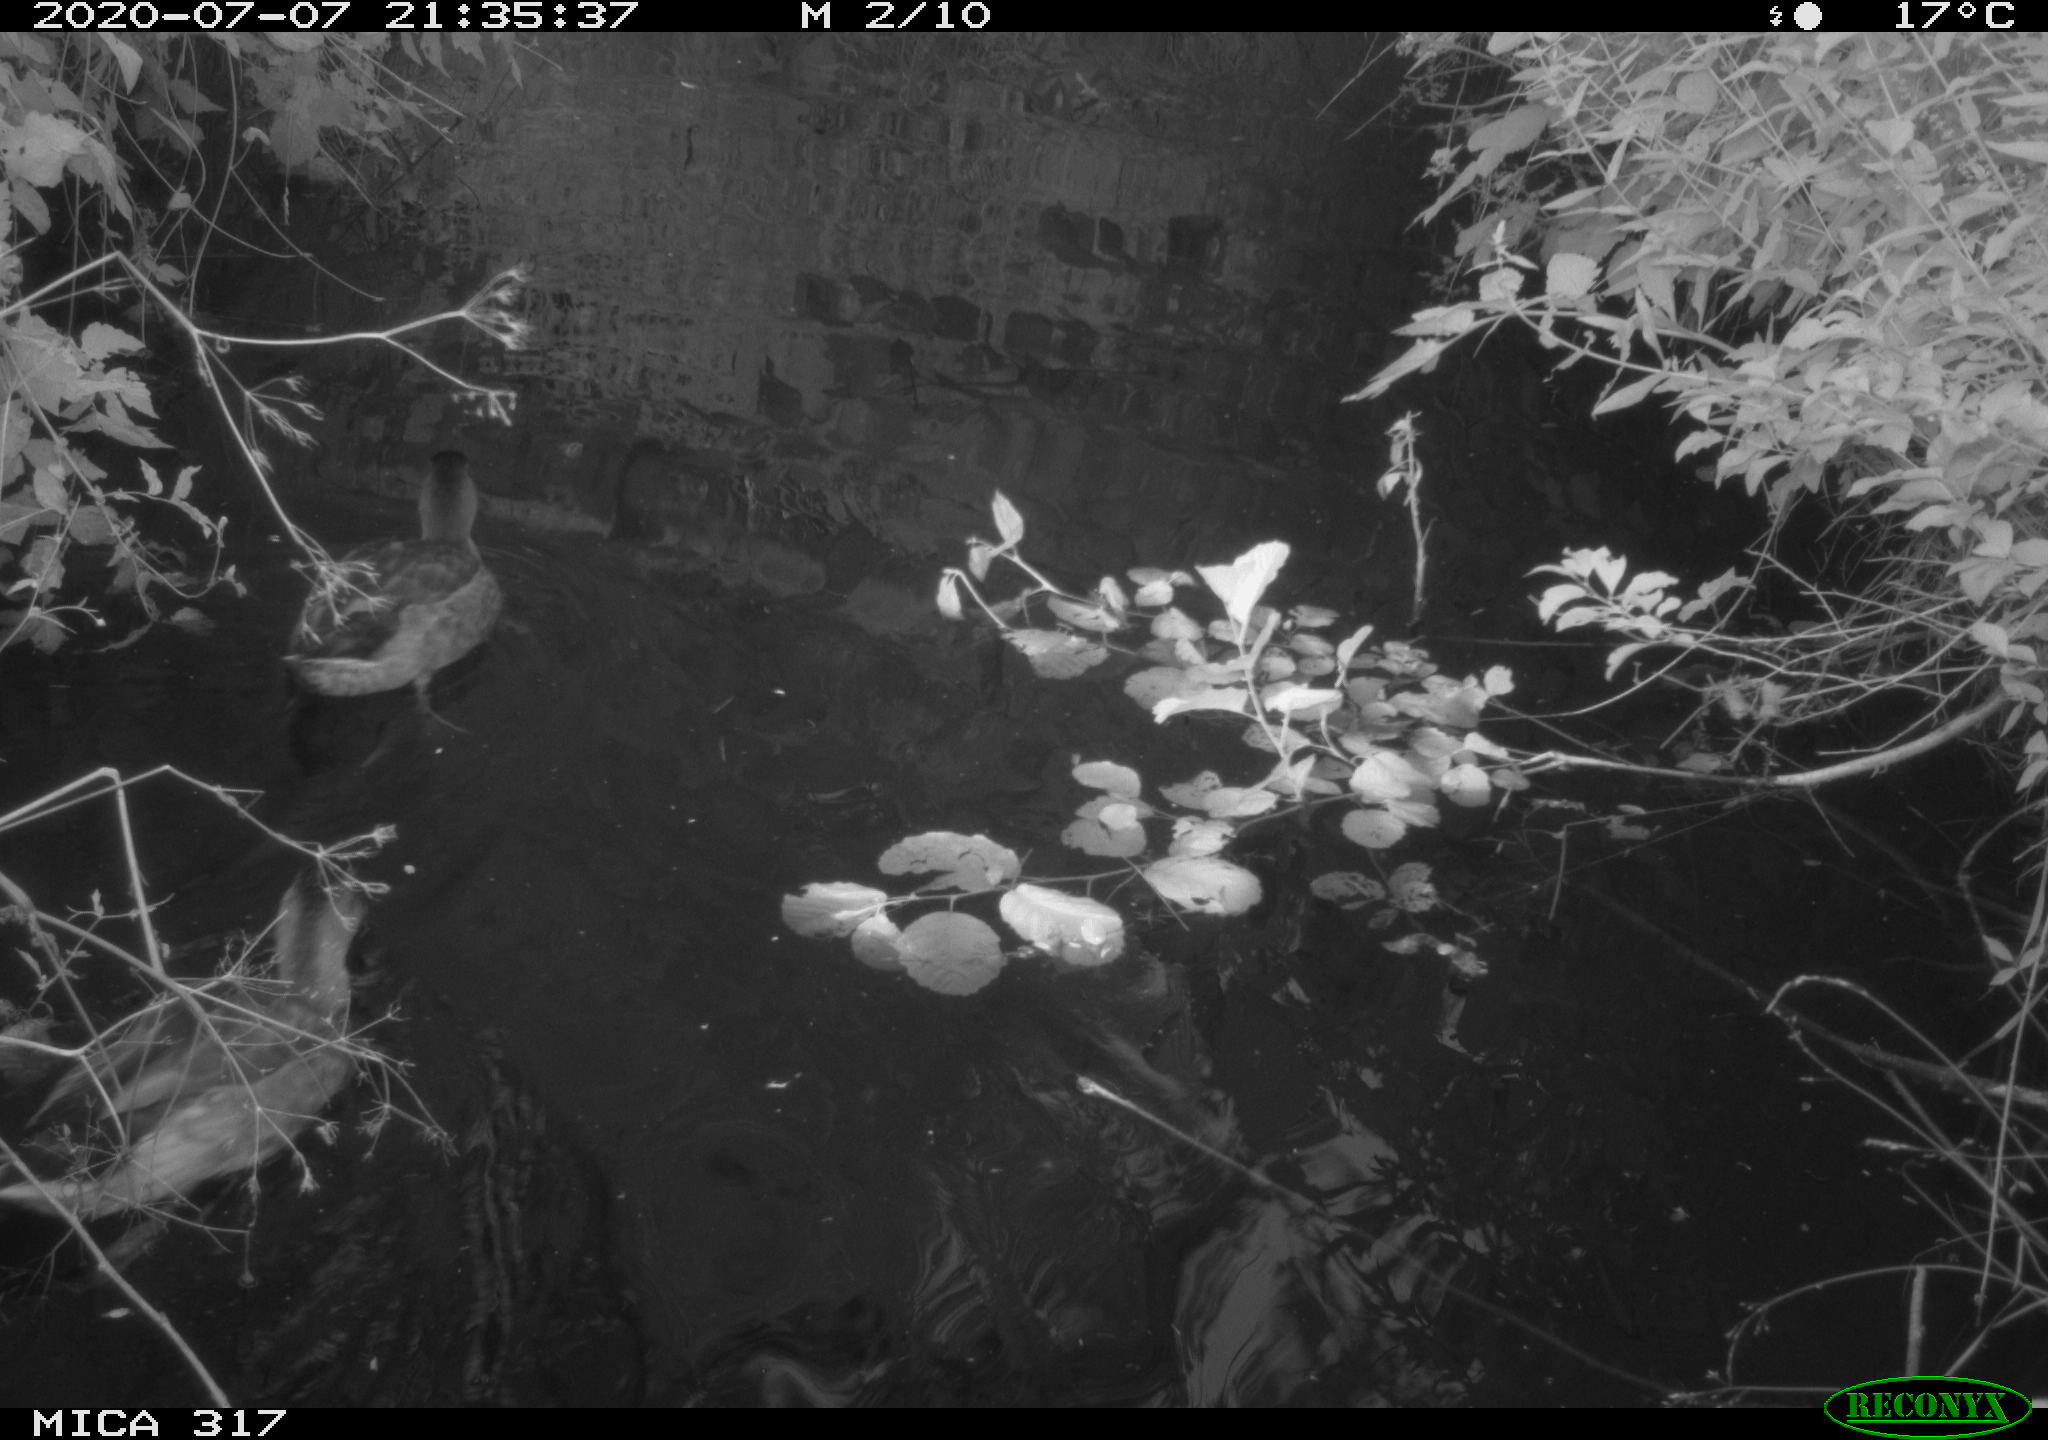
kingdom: Animalia
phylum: Chordata
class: Aves
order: Anseriformes
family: Anatidae
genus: Anas
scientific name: Anas platyrhynchos
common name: Mallard
